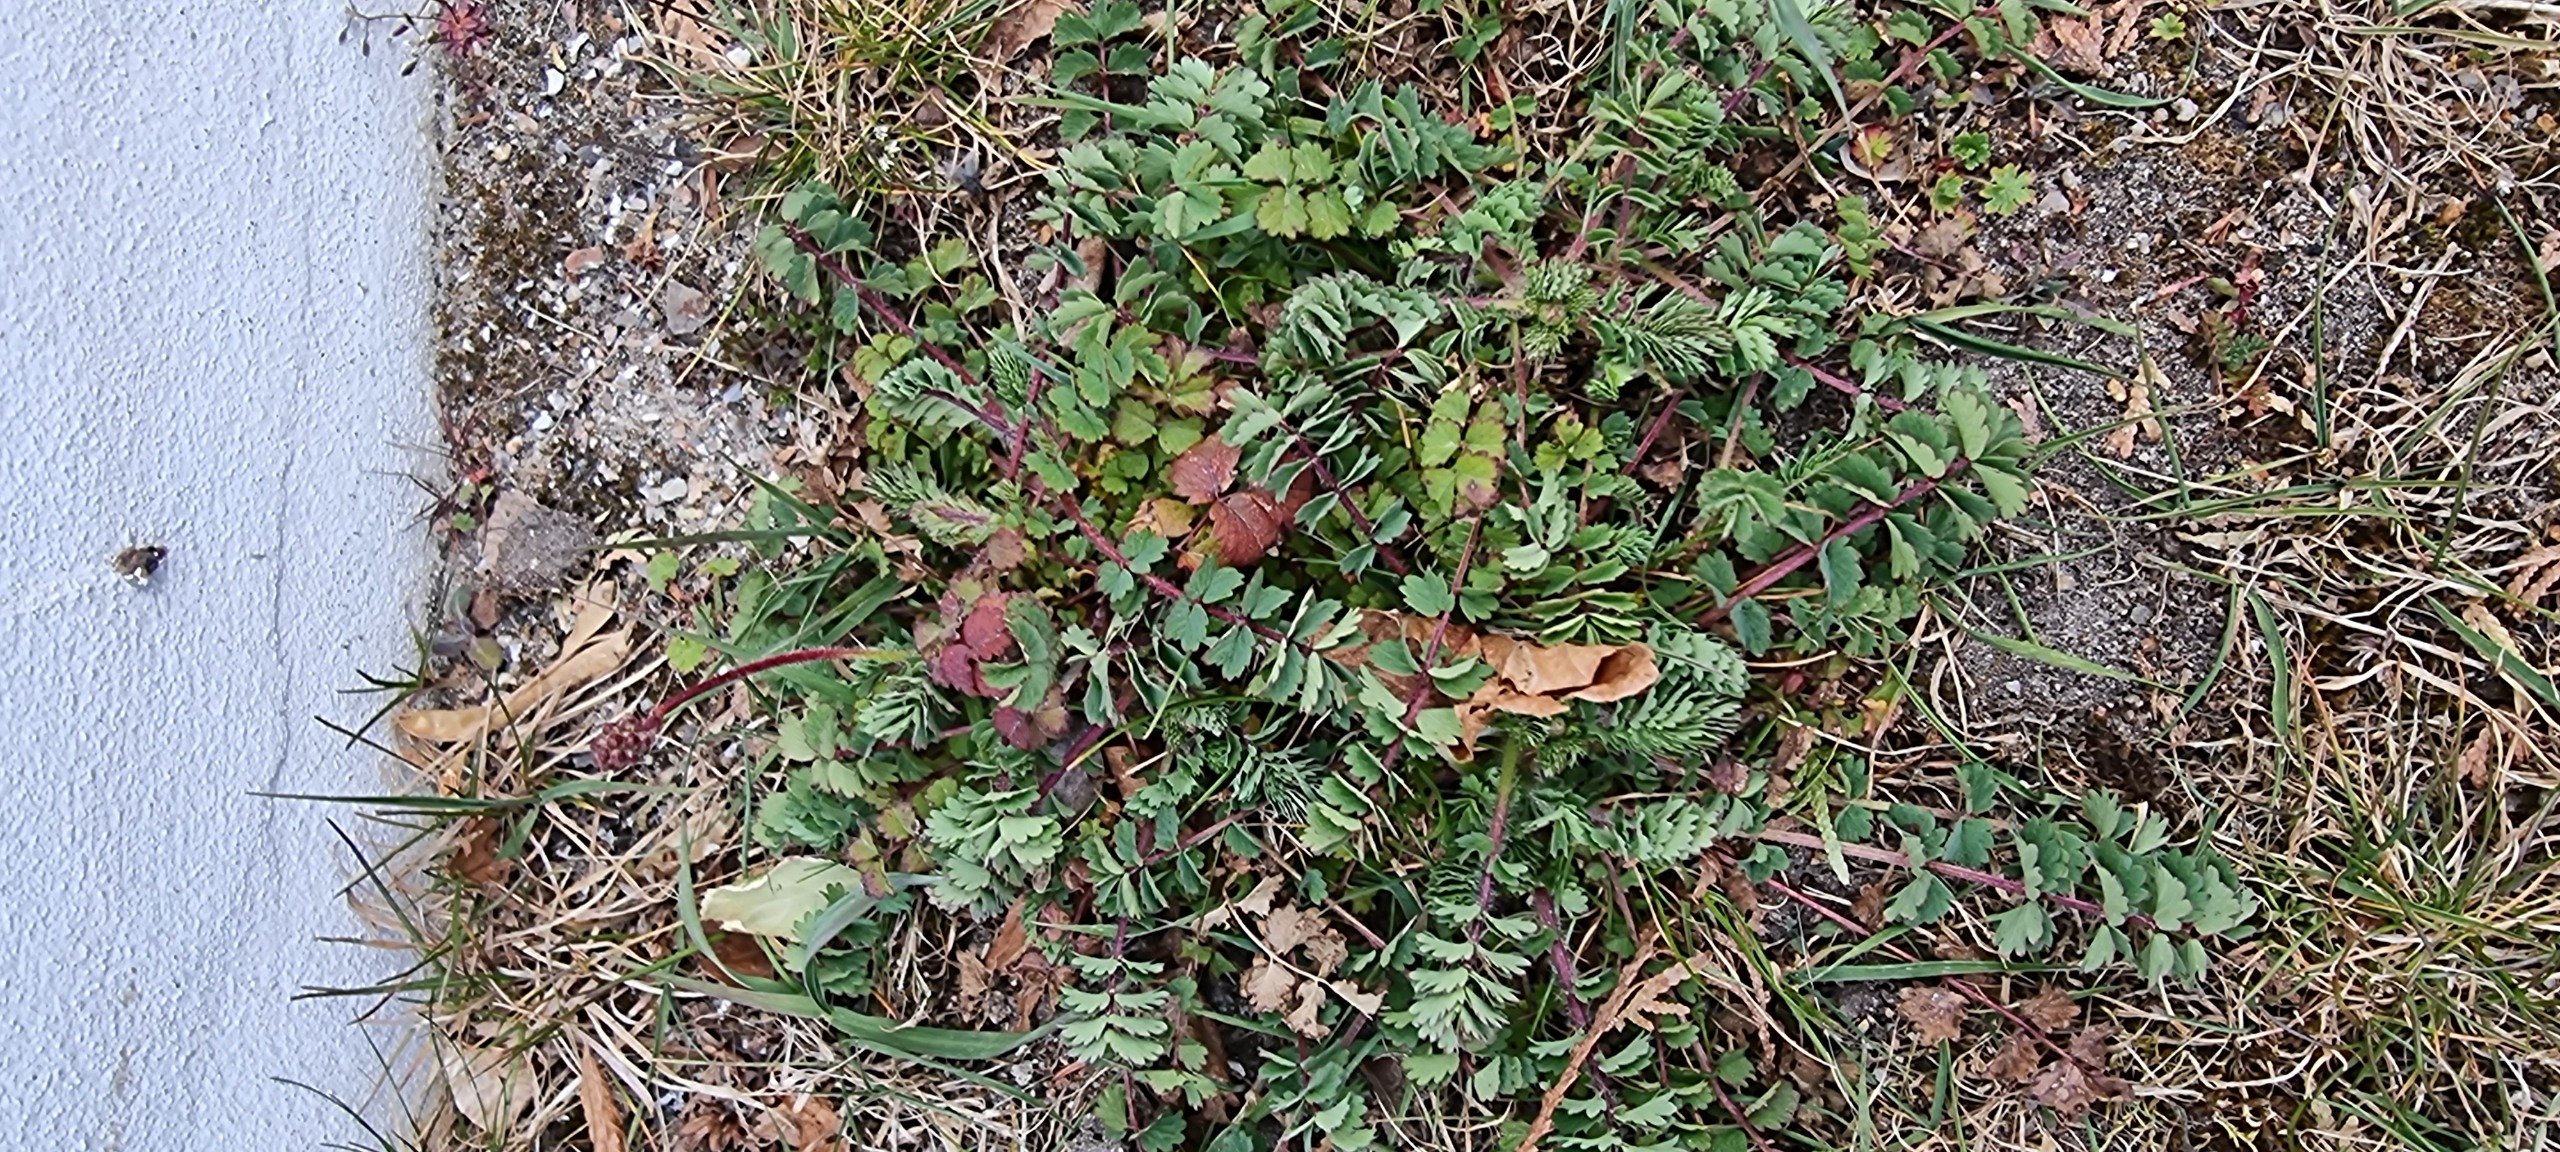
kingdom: Plantae
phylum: Tracheophyta
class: Magnoliopsida
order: Rosales
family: Rosaceae
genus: Poterium
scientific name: Poterium sanguisorba
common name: Bibernelle
